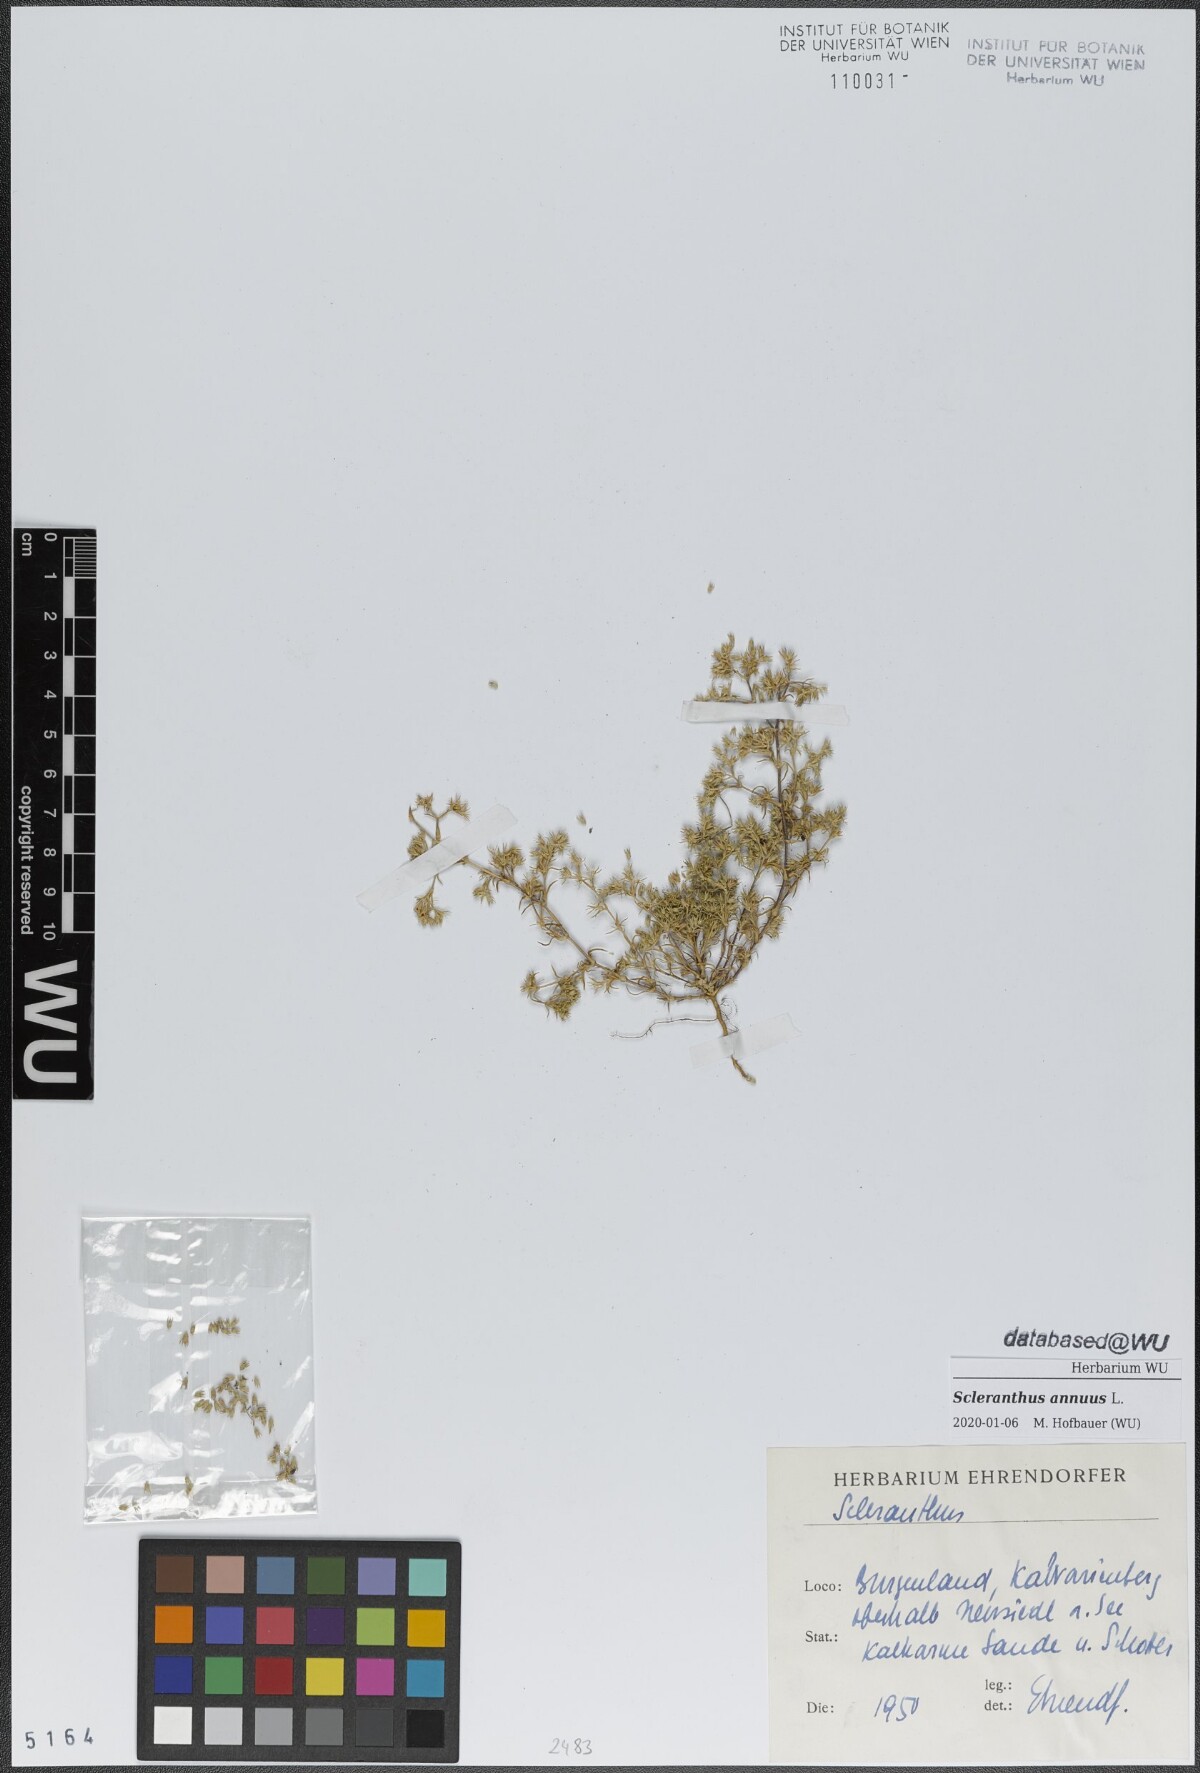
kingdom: Plantae
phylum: Tracheophyta
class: Magnoliopsida
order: Caryophyllales
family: Caryophyllaceae
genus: Scleranthus
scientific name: Scleranthus annuus
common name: Annual knawel
